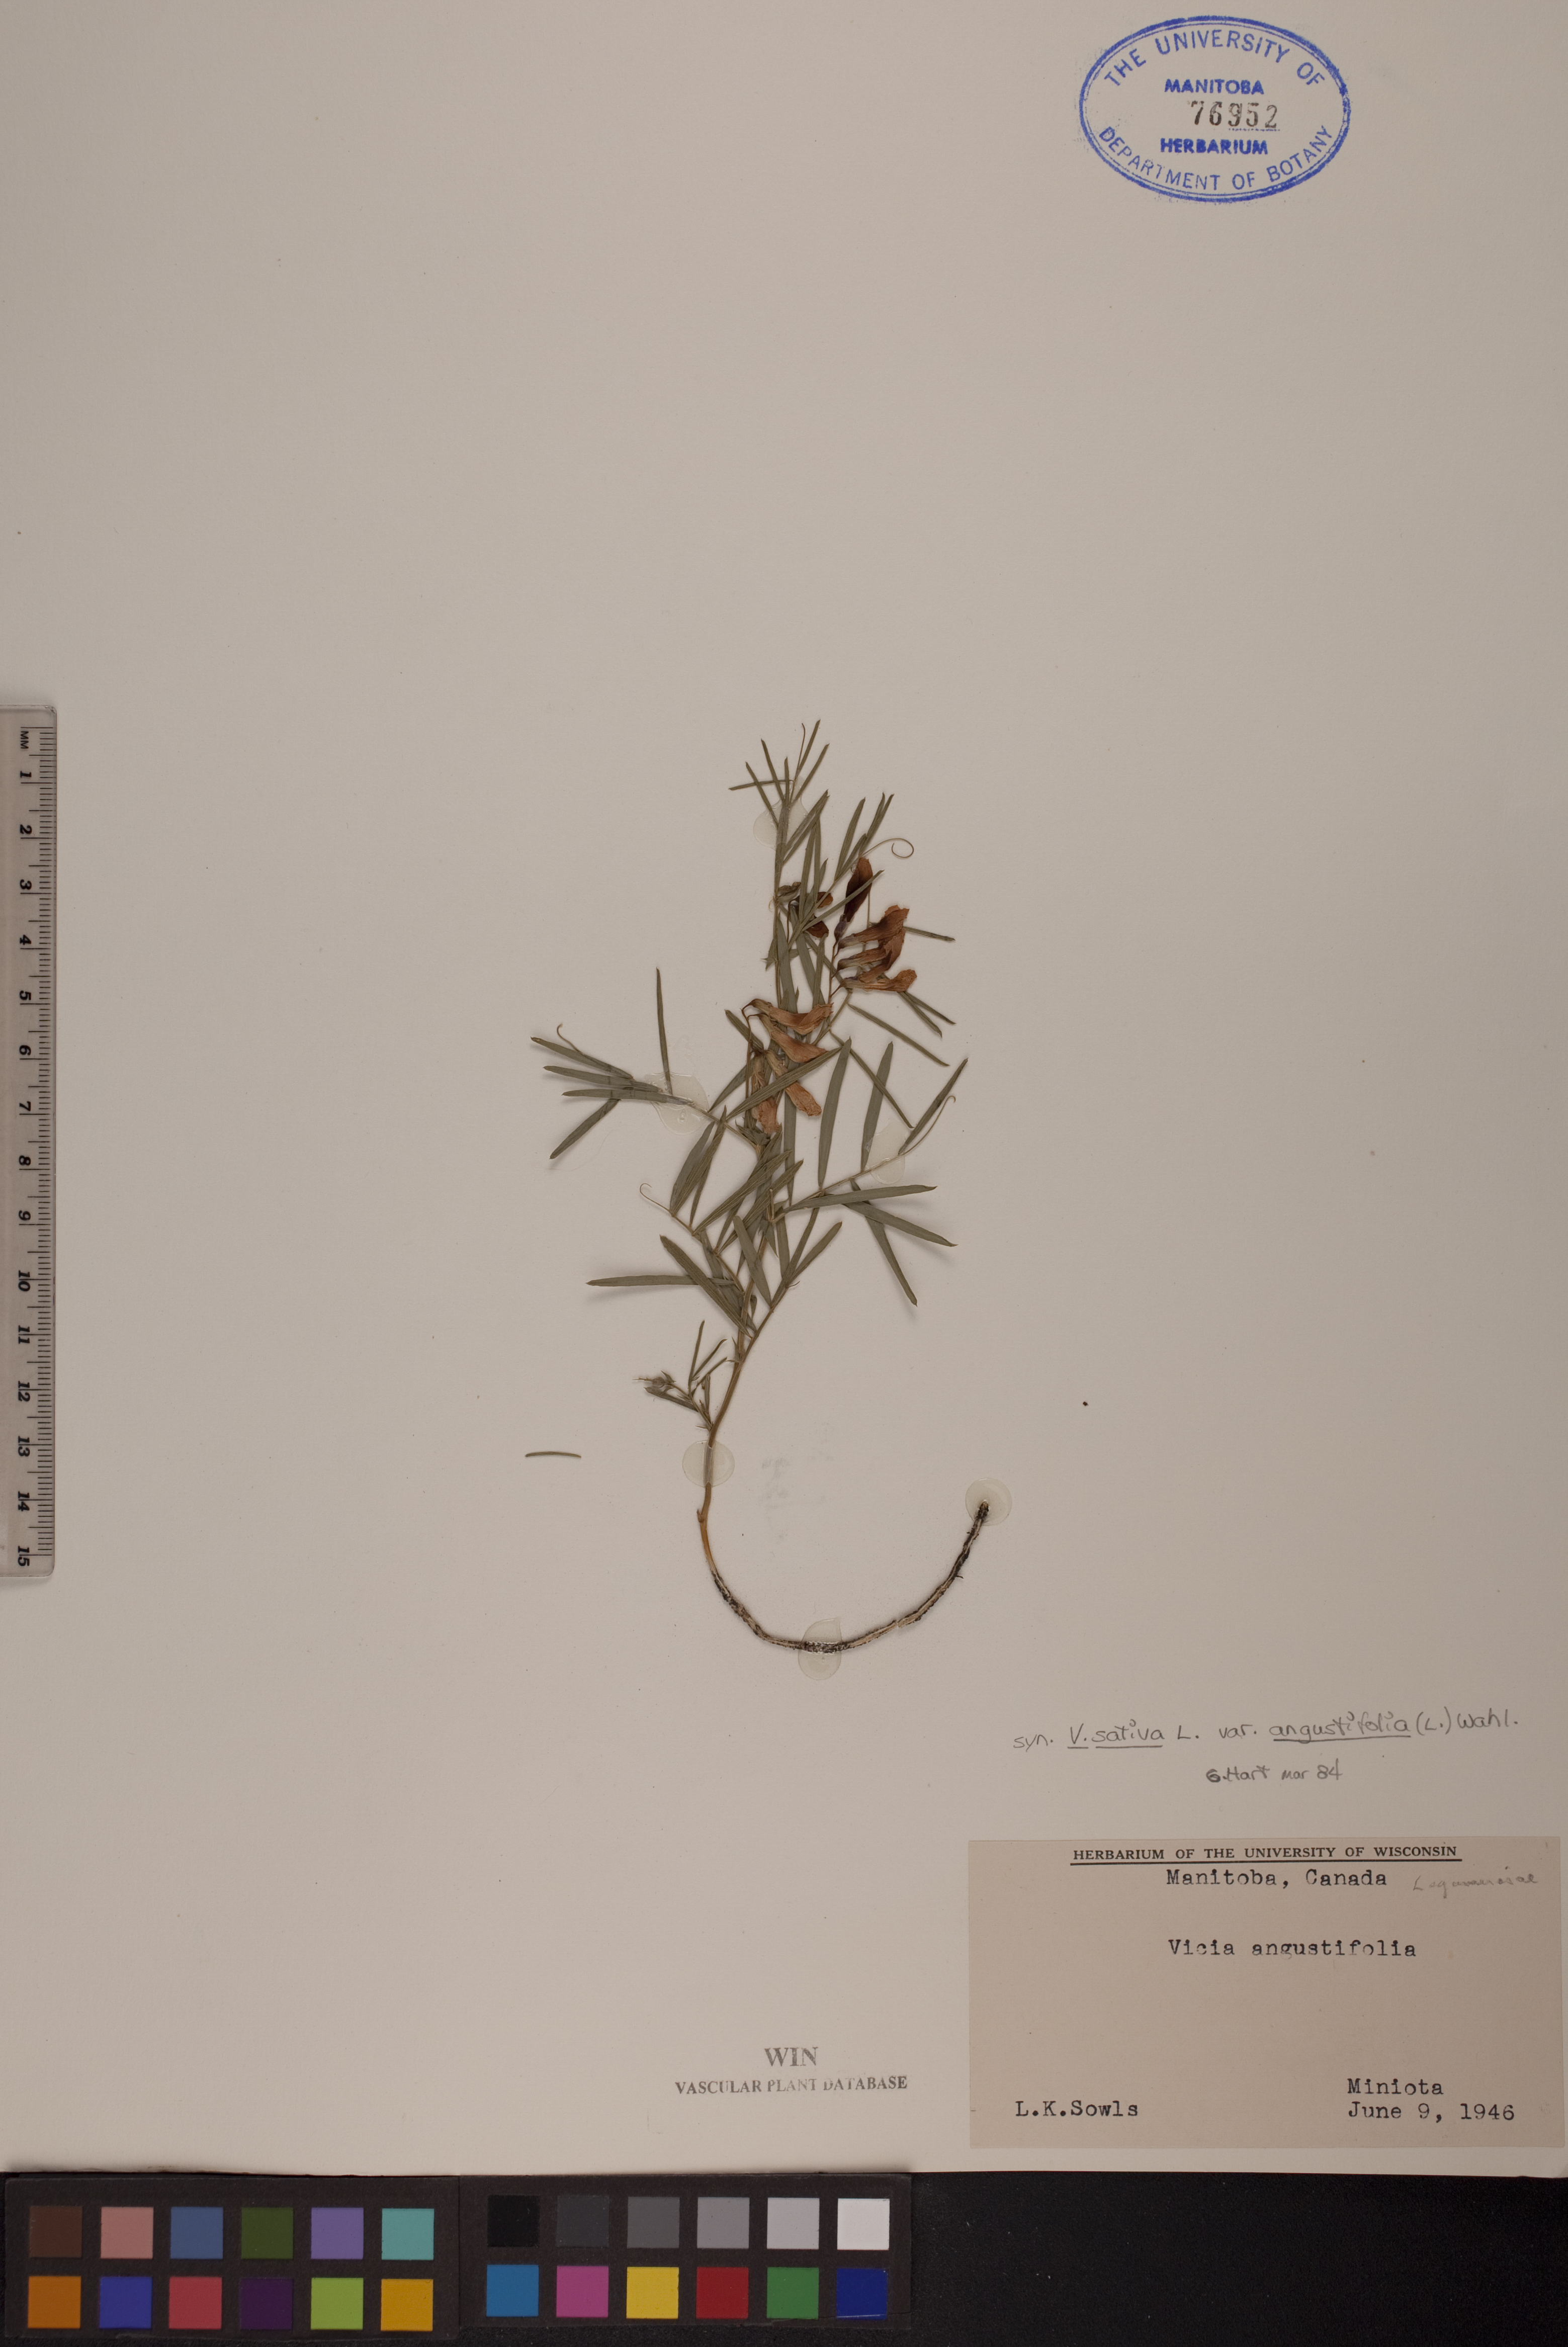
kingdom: Plantae
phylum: Tracheophyta
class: Magnoliopsida
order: Fabales
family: Fabaceae
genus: Vicia
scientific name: Vicia sativa
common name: Garden vetch
